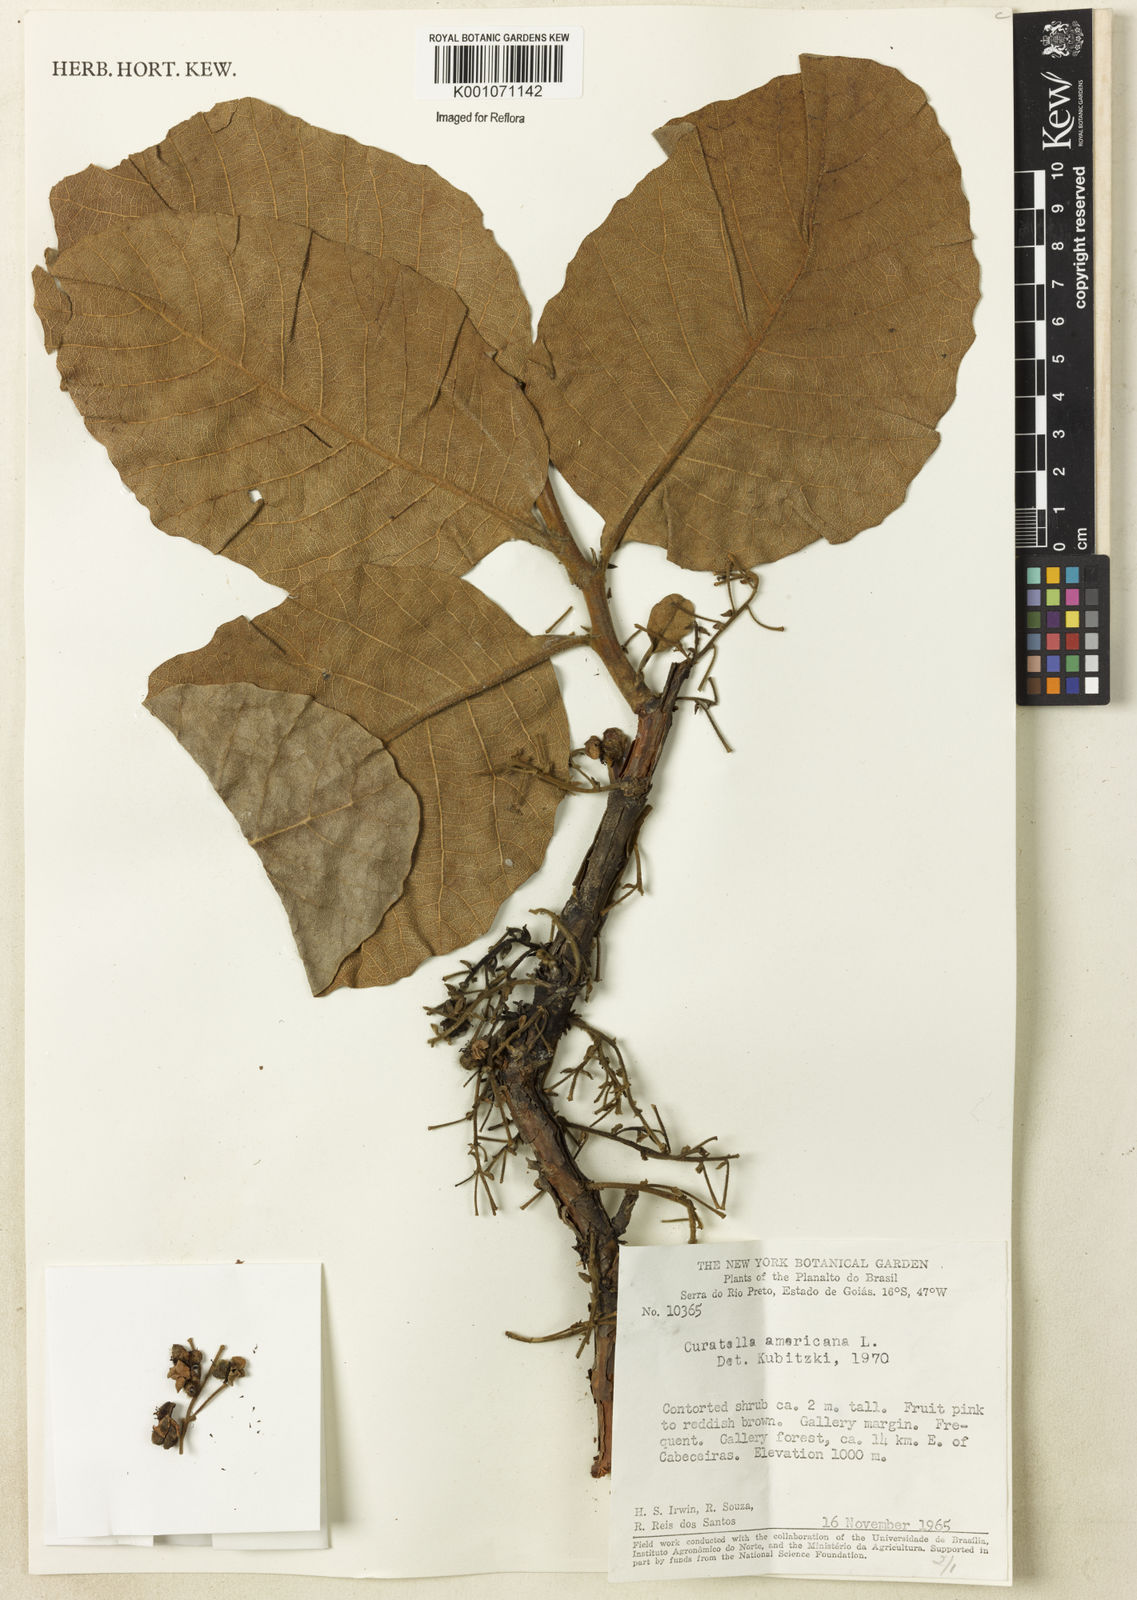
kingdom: Plantae
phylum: Tracheophyta
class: Magnoliopsida
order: Dilleniales
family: Dilleniaceae
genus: Curatella
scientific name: Curatella americana
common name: Sandpaper tree
